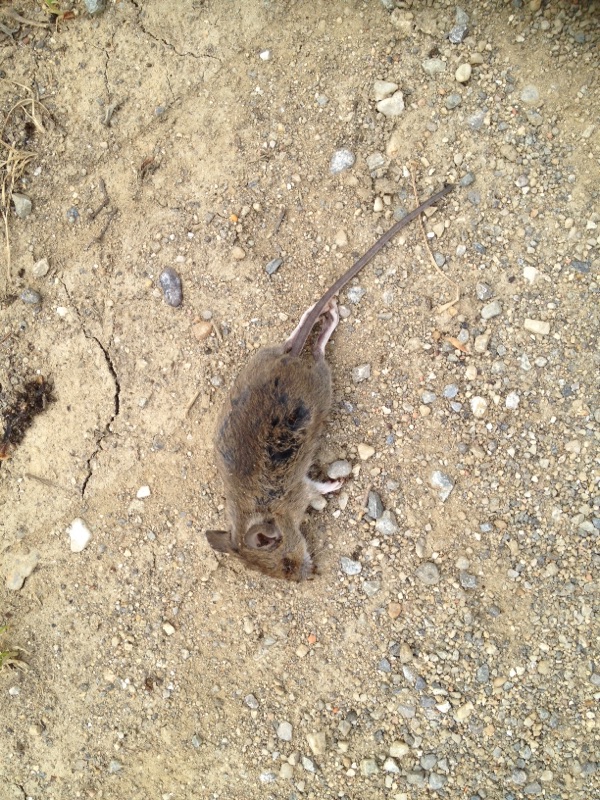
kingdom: Animalia
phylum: Chordata
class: Mammalia
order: Rodentia
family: Muridae
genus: Apodemus
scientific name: Apodemus
